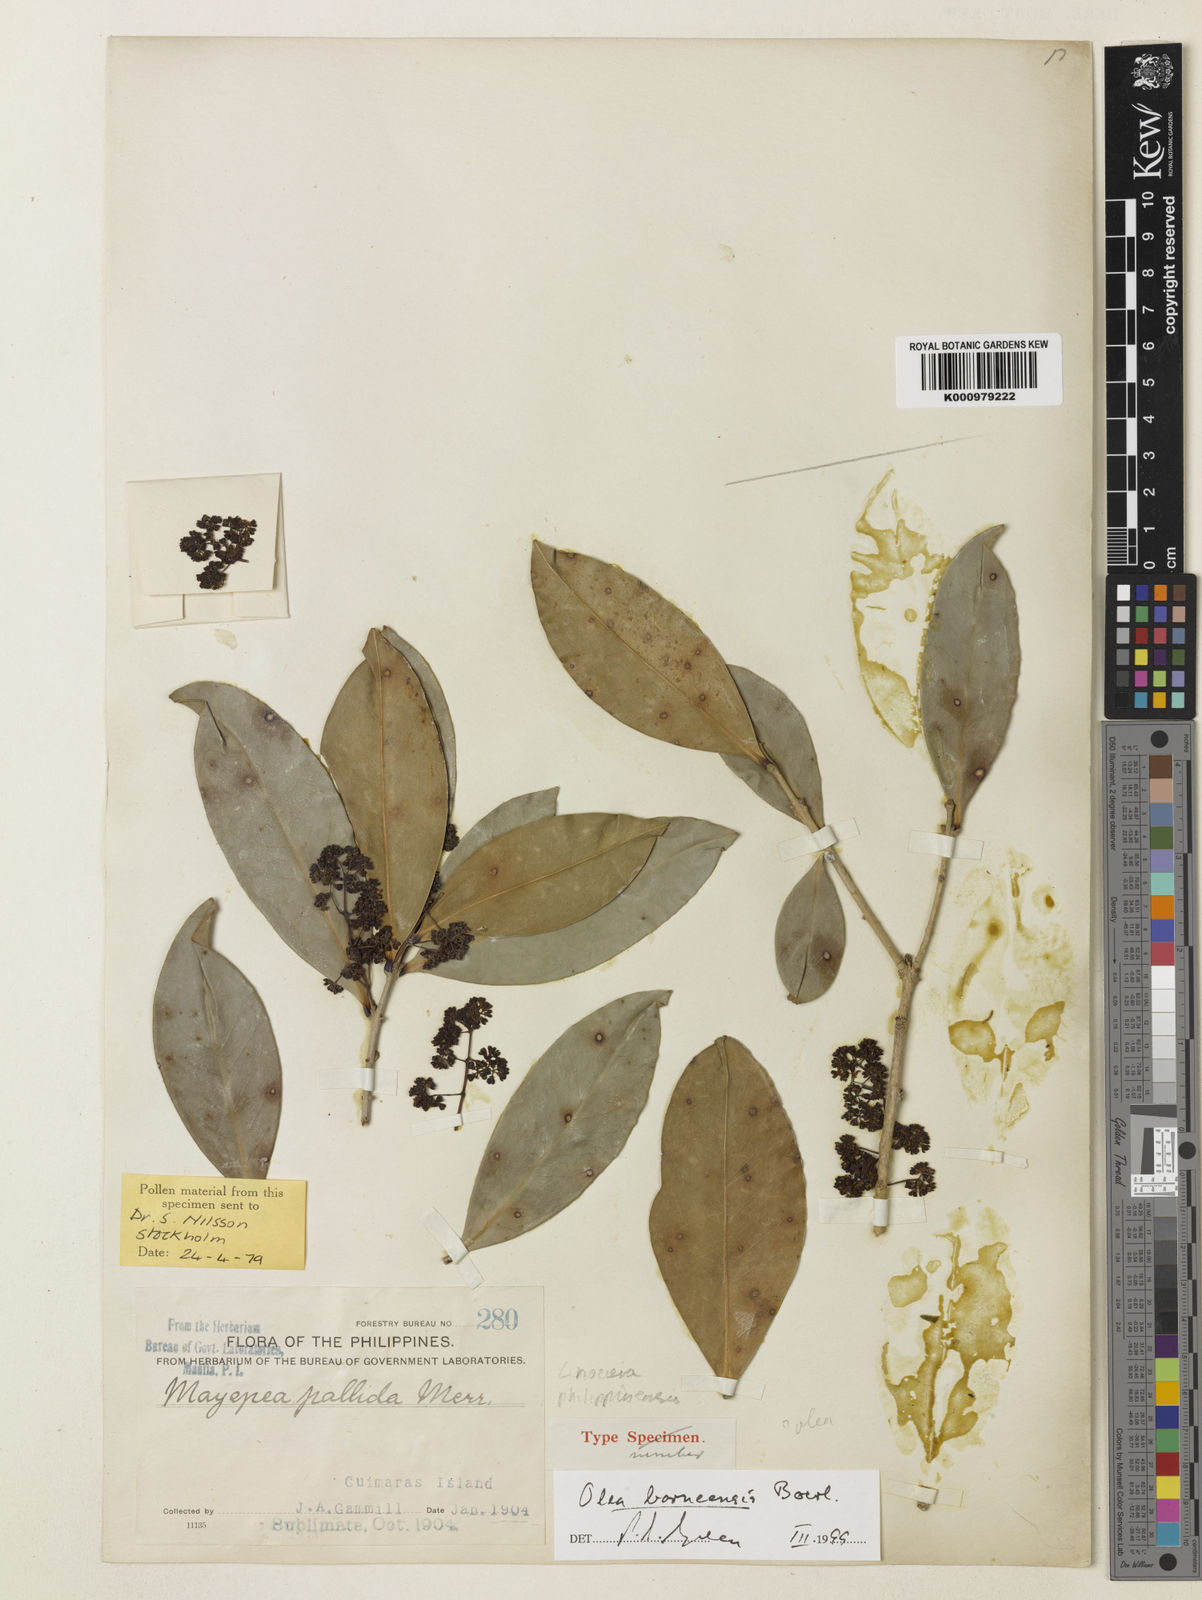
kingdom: Plantae
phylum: Tracheophyta
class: Magnoliopsida
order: Lamiales
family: Oleaceae
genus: Tetrapilus
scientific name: Tetrapilus borneensis
